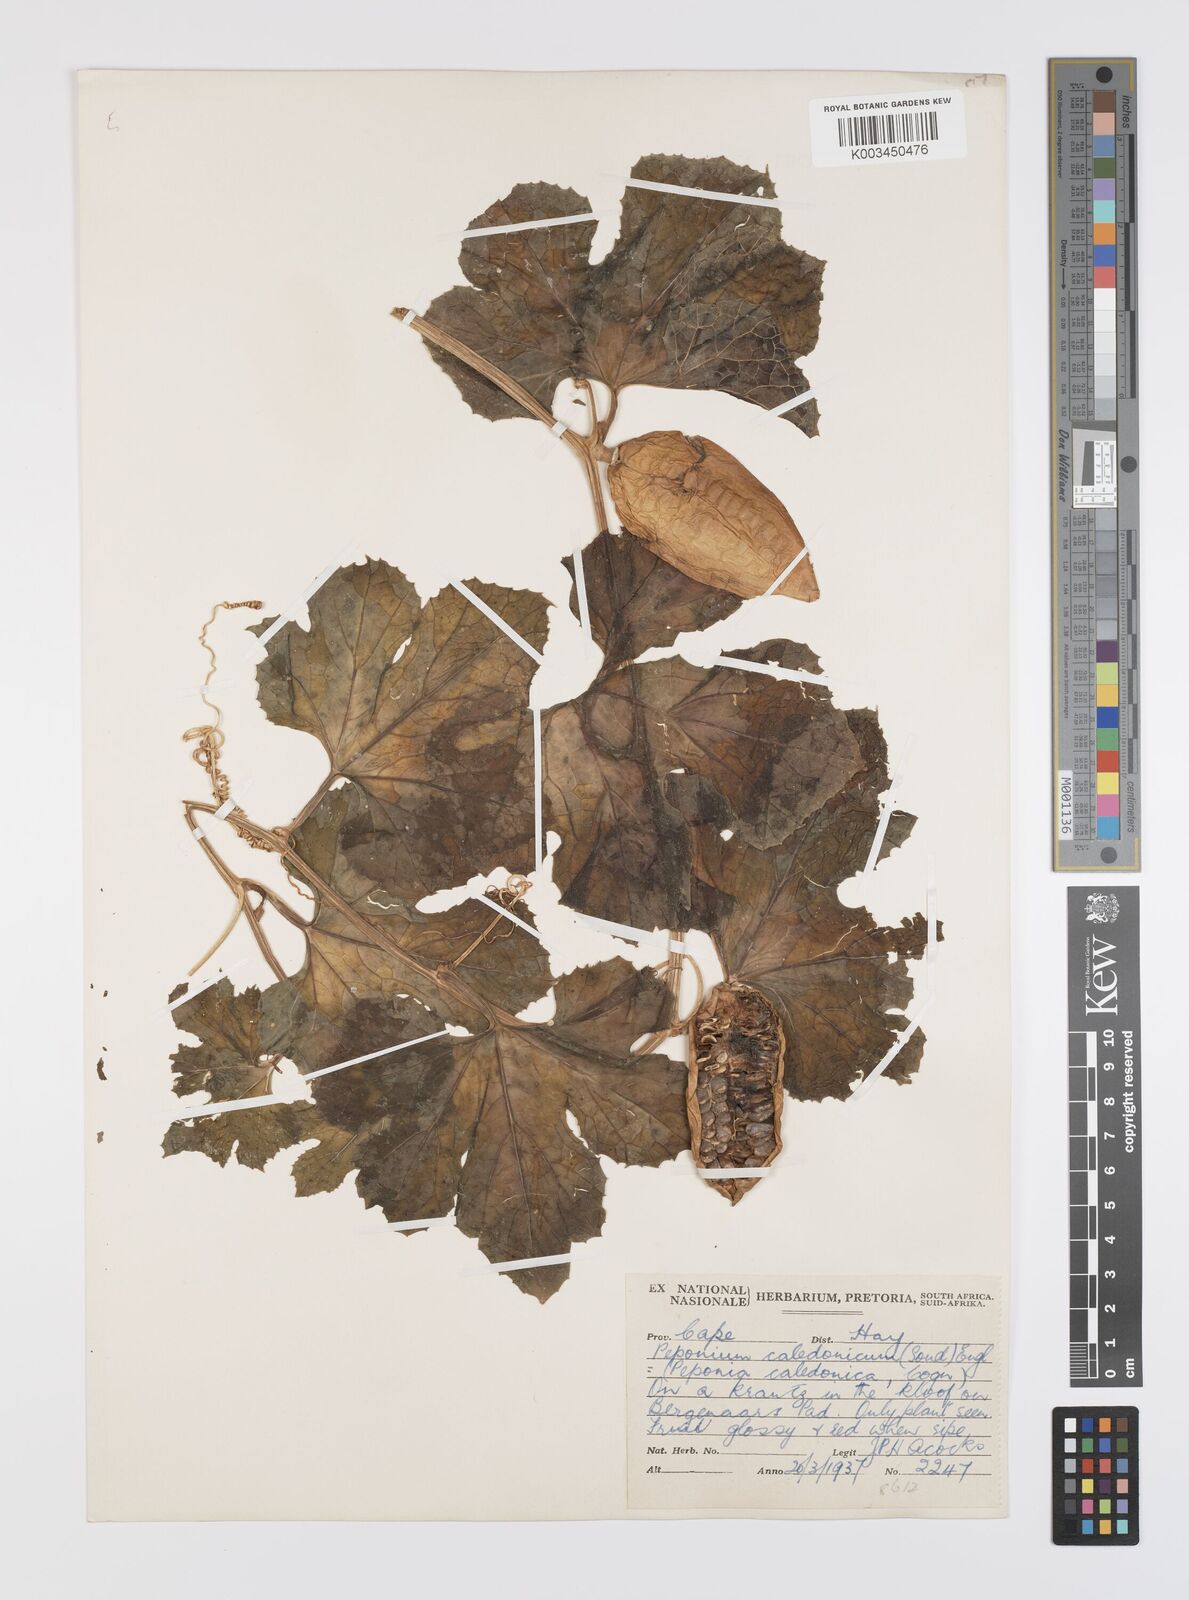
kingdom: Plantae
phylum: Tracheophyta
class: Magnoliopsida
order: Cucurbitales
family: Cucurbitaceae
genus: Peponium
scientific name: Peponium caledonicum
